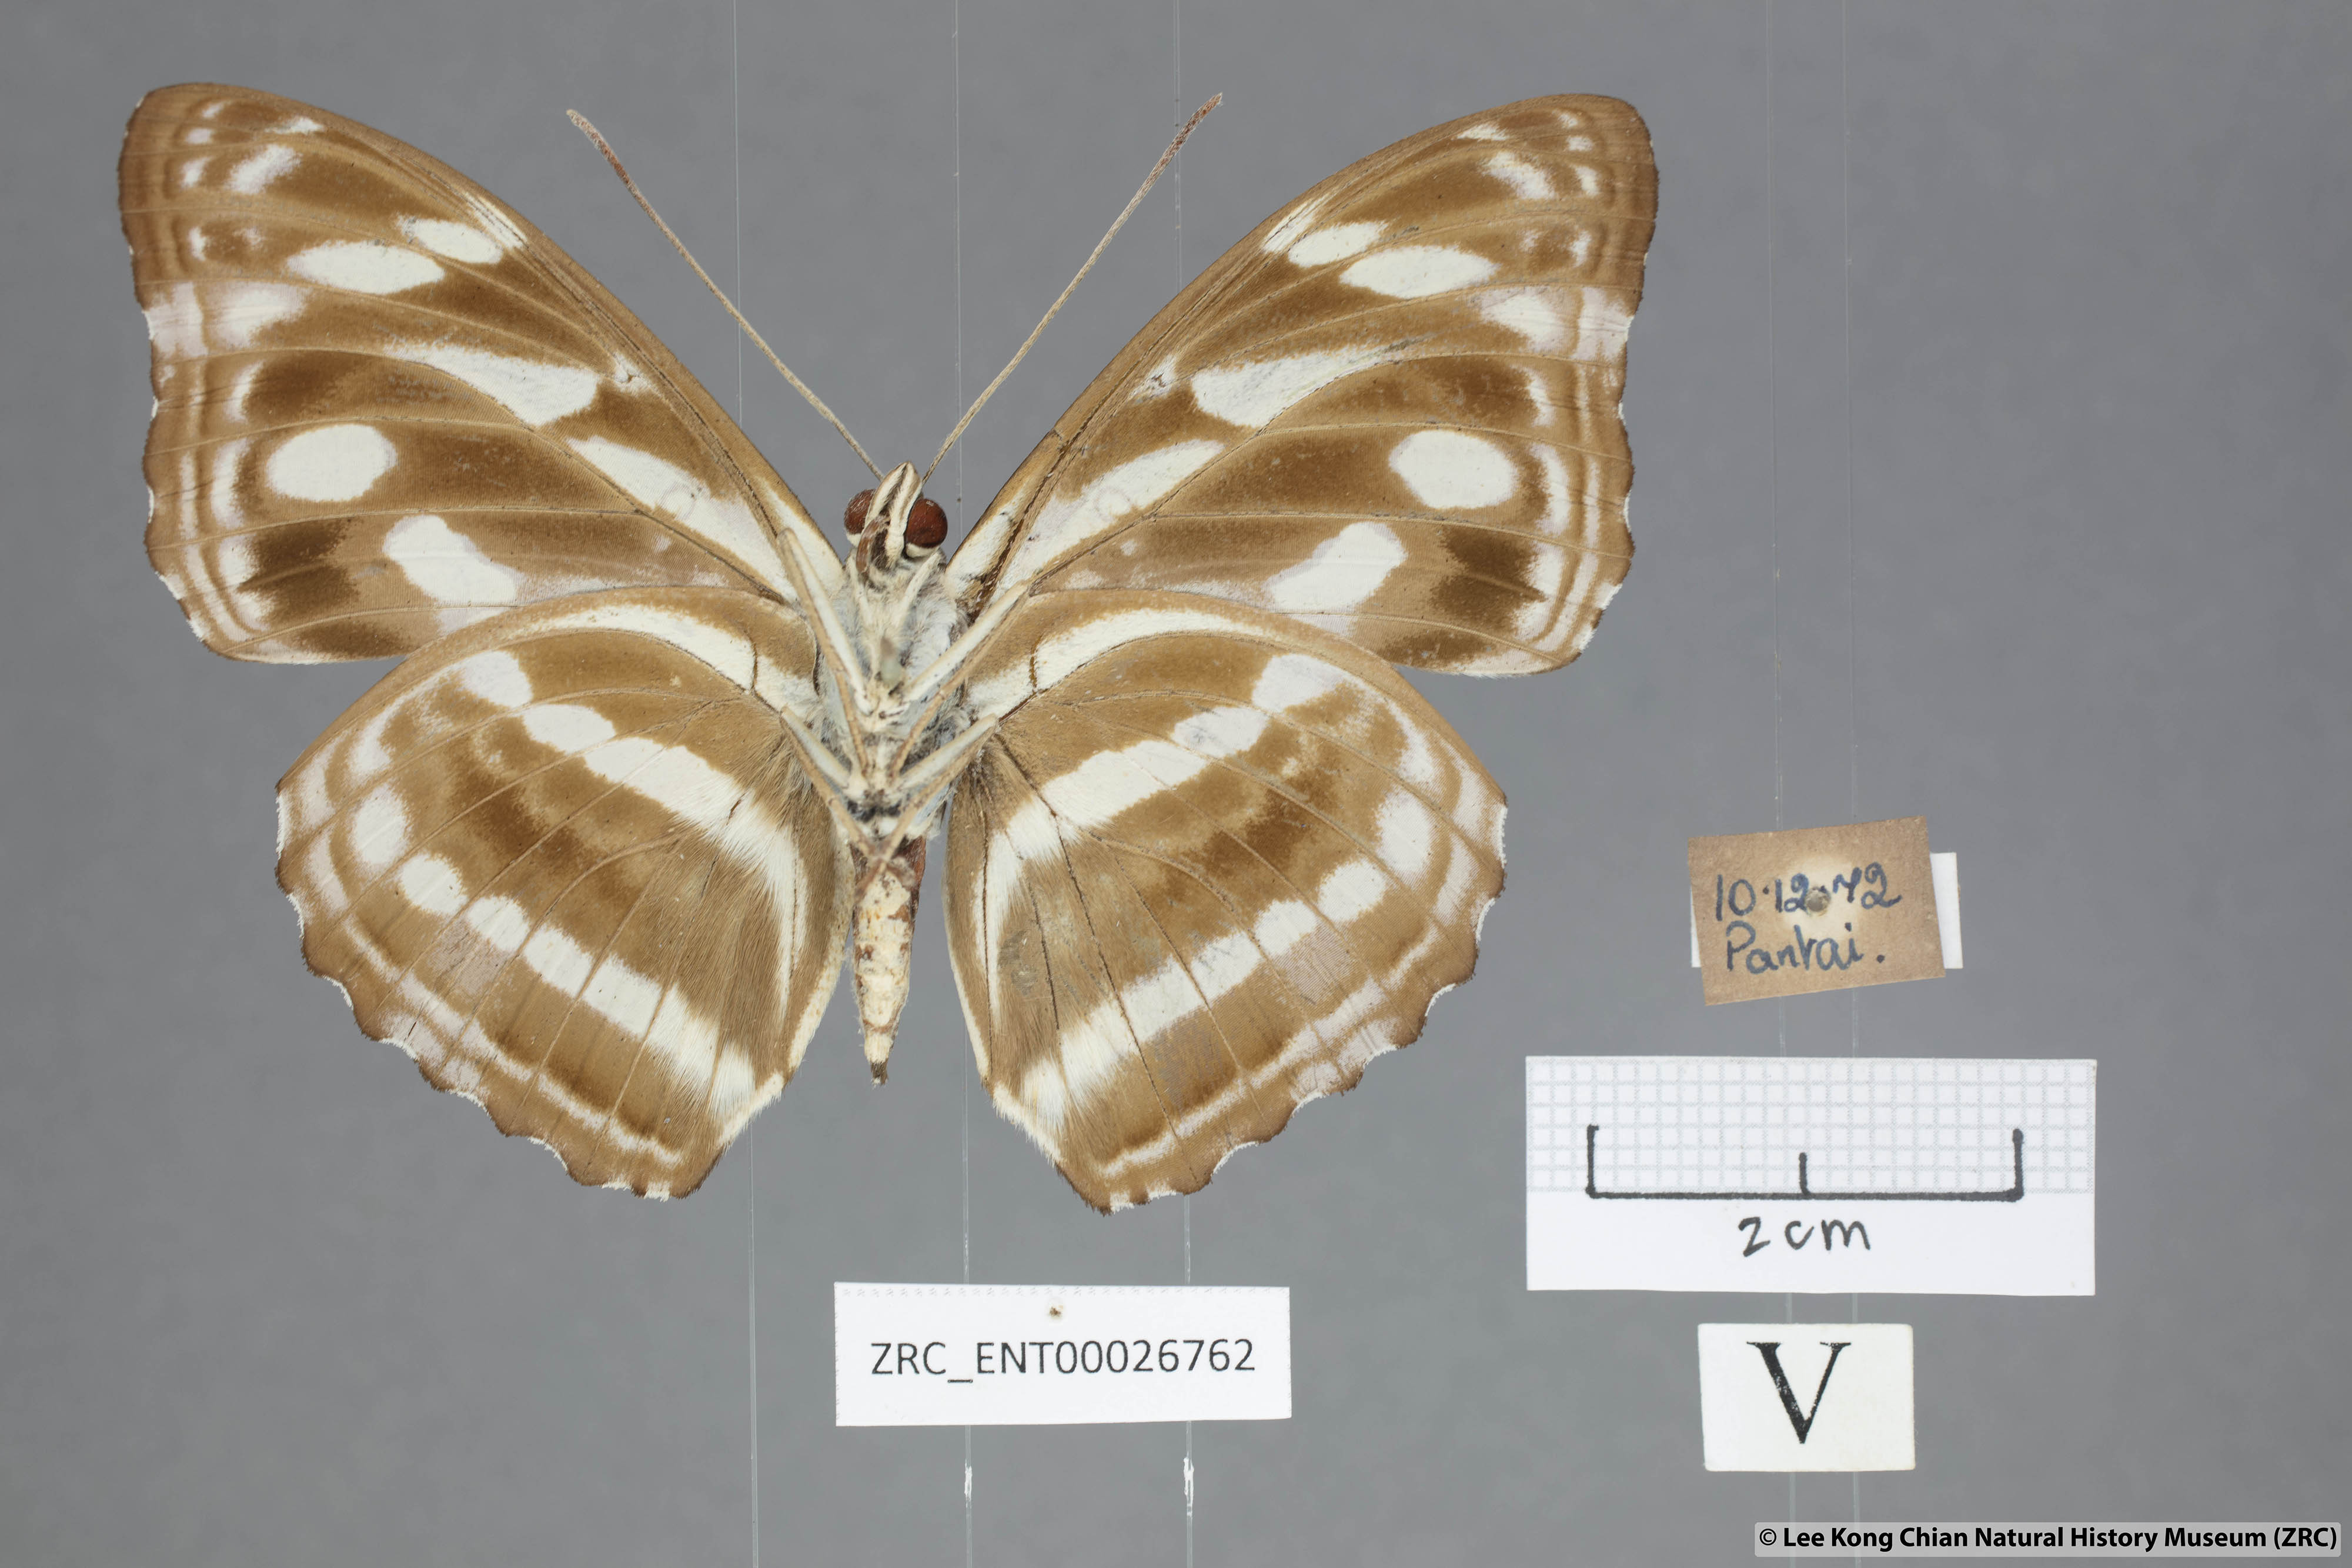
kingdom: Animalia
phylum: Arthropoda
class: Insecta
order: Lepidoptera
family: Nymphalidae
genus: Pantoporia
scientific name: Pantoporia larymna
